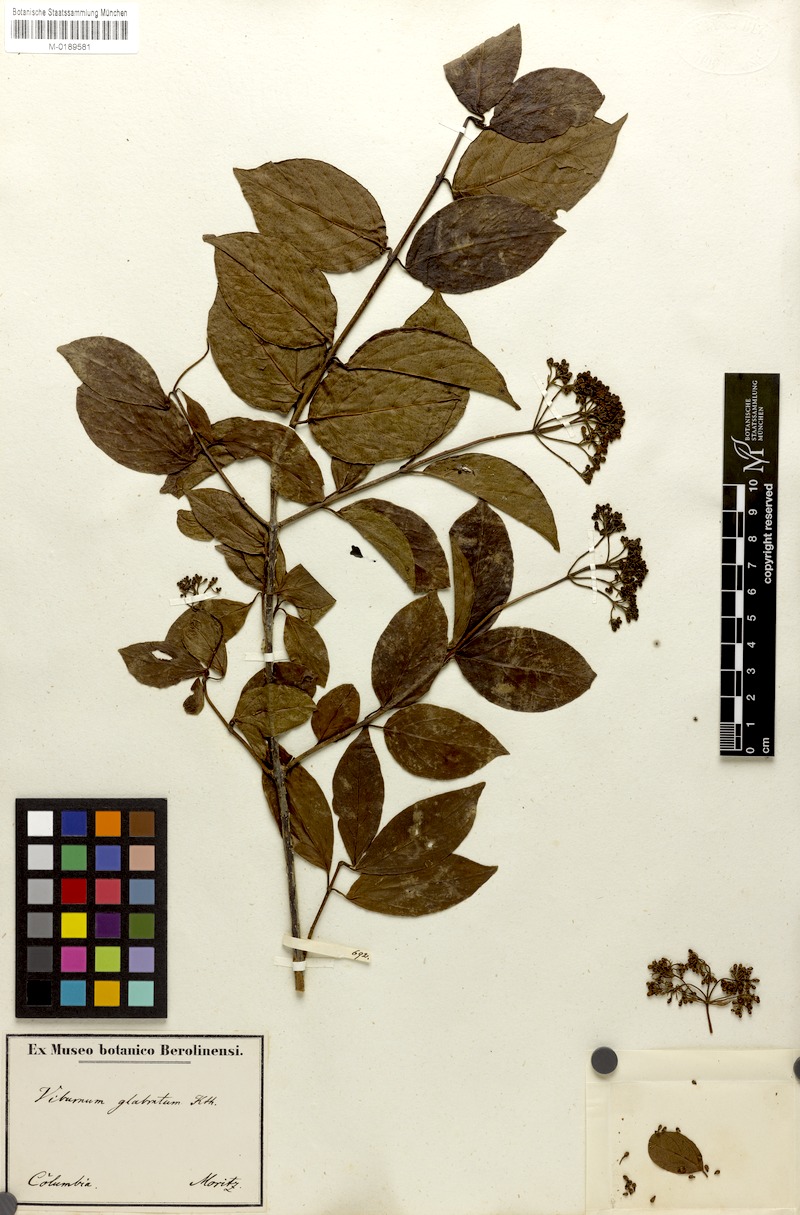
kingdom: Plantae
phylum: Tracheophyta
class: Magnoliopsida
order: Dipsacales
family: Viburnaceae
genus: Viburnum
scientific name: Viburnum glabratum
